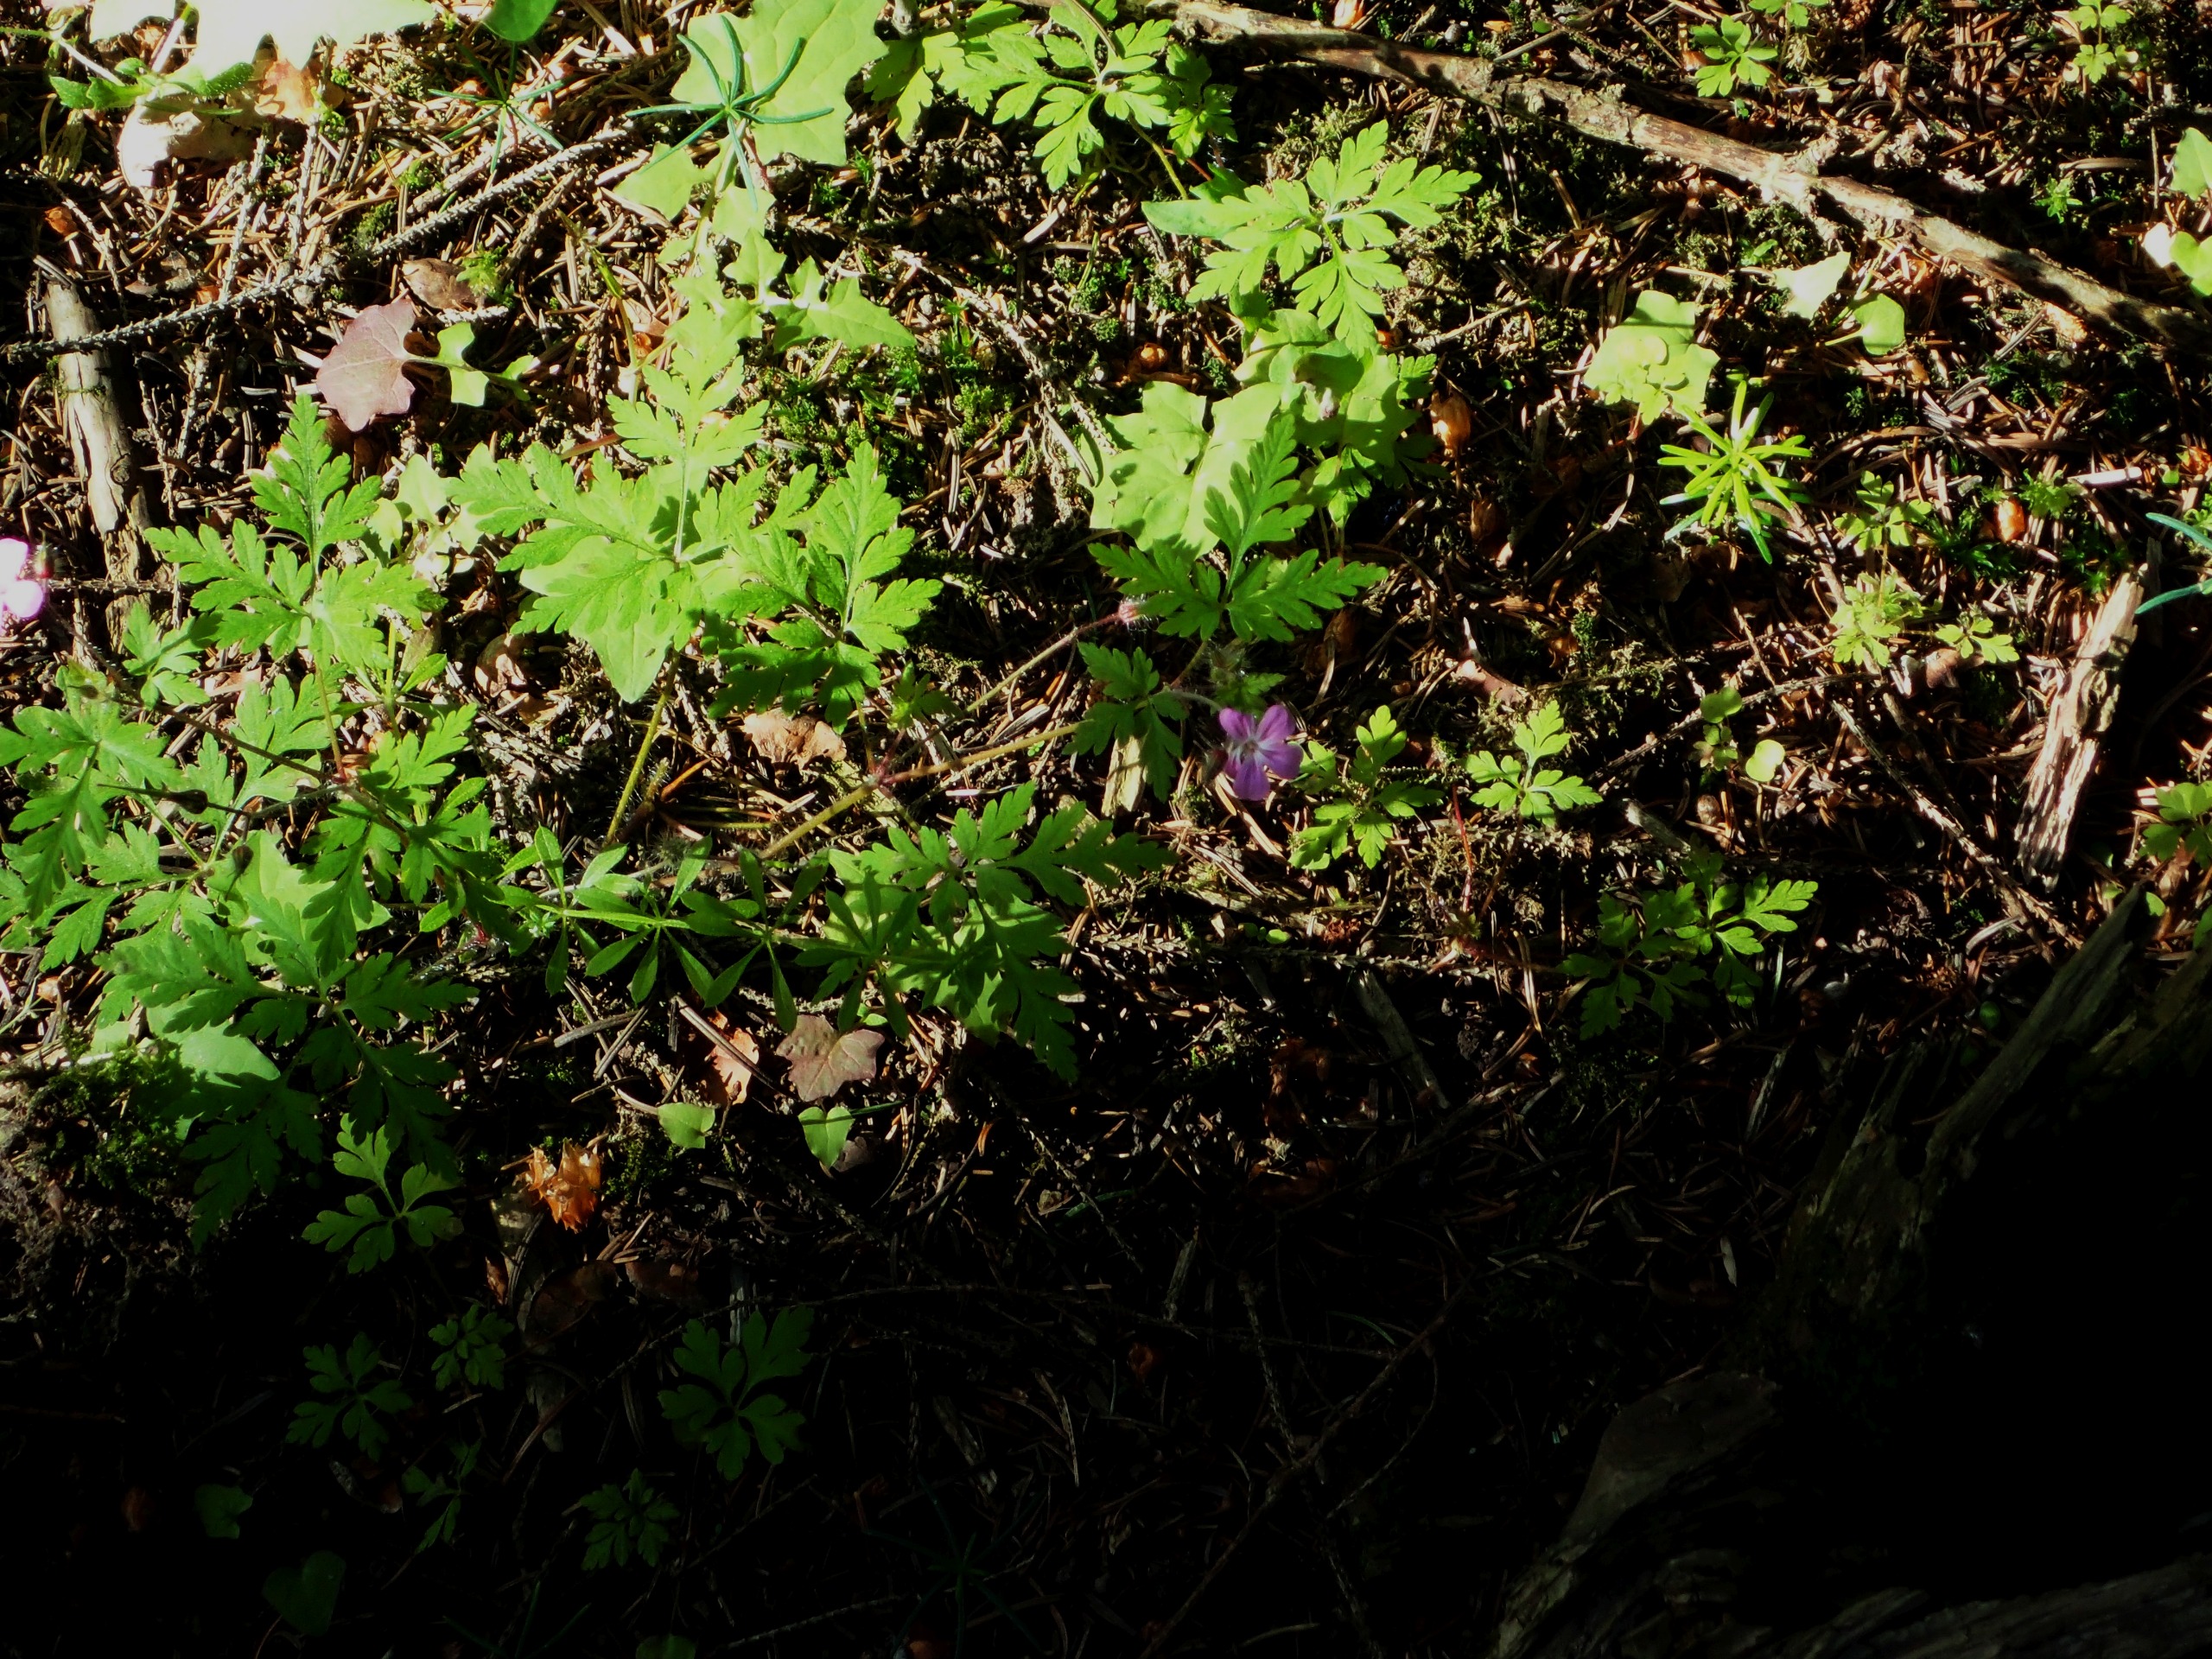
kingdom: Plantae
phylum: Tracheophyta
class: Magnoliopsida
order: Geraniales
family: Geraniaceae
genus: Geranium
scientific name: Geranium robertianum
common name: Stinkende storkenæb
